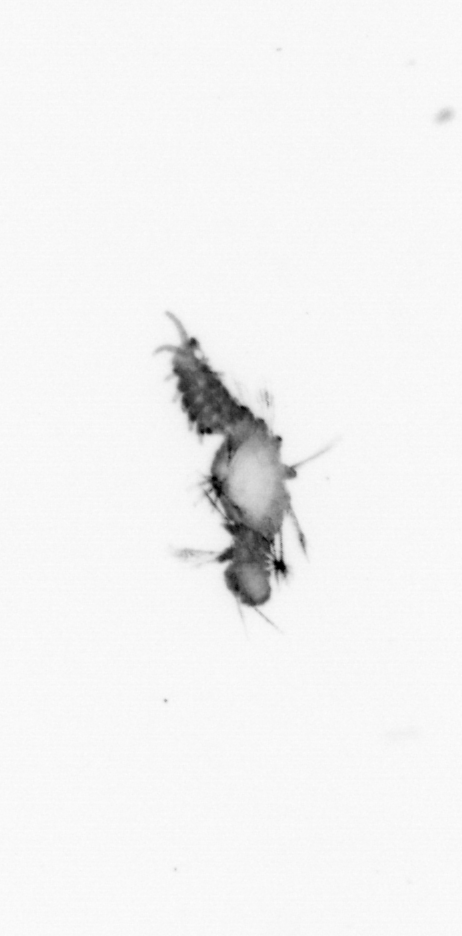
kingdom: Animalia
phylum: Annelida
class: Polychaeta
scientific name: Polychaeta
